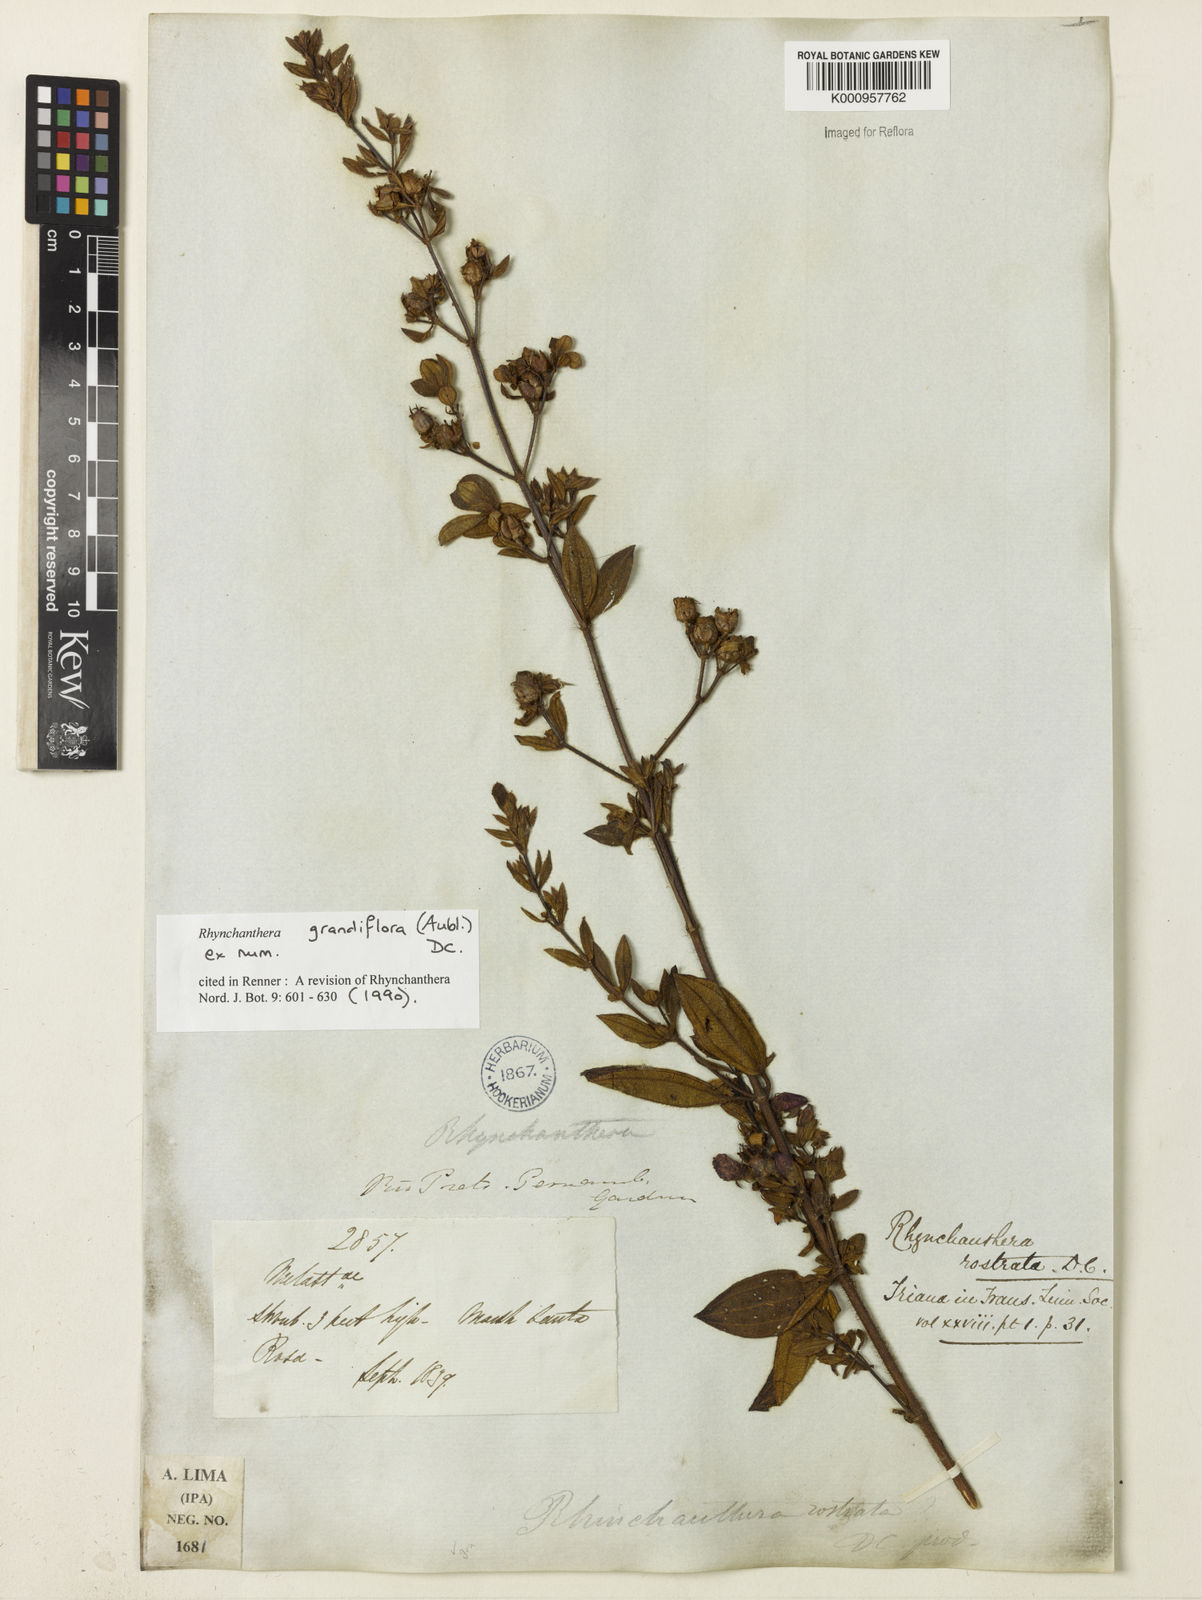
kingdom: Plantae
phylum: Tracheophyta
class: Magnoliopsida
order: Myrtales
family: Melastomataceae
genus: Rhynchanthera
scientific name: Rhynchanthera grandiflora
